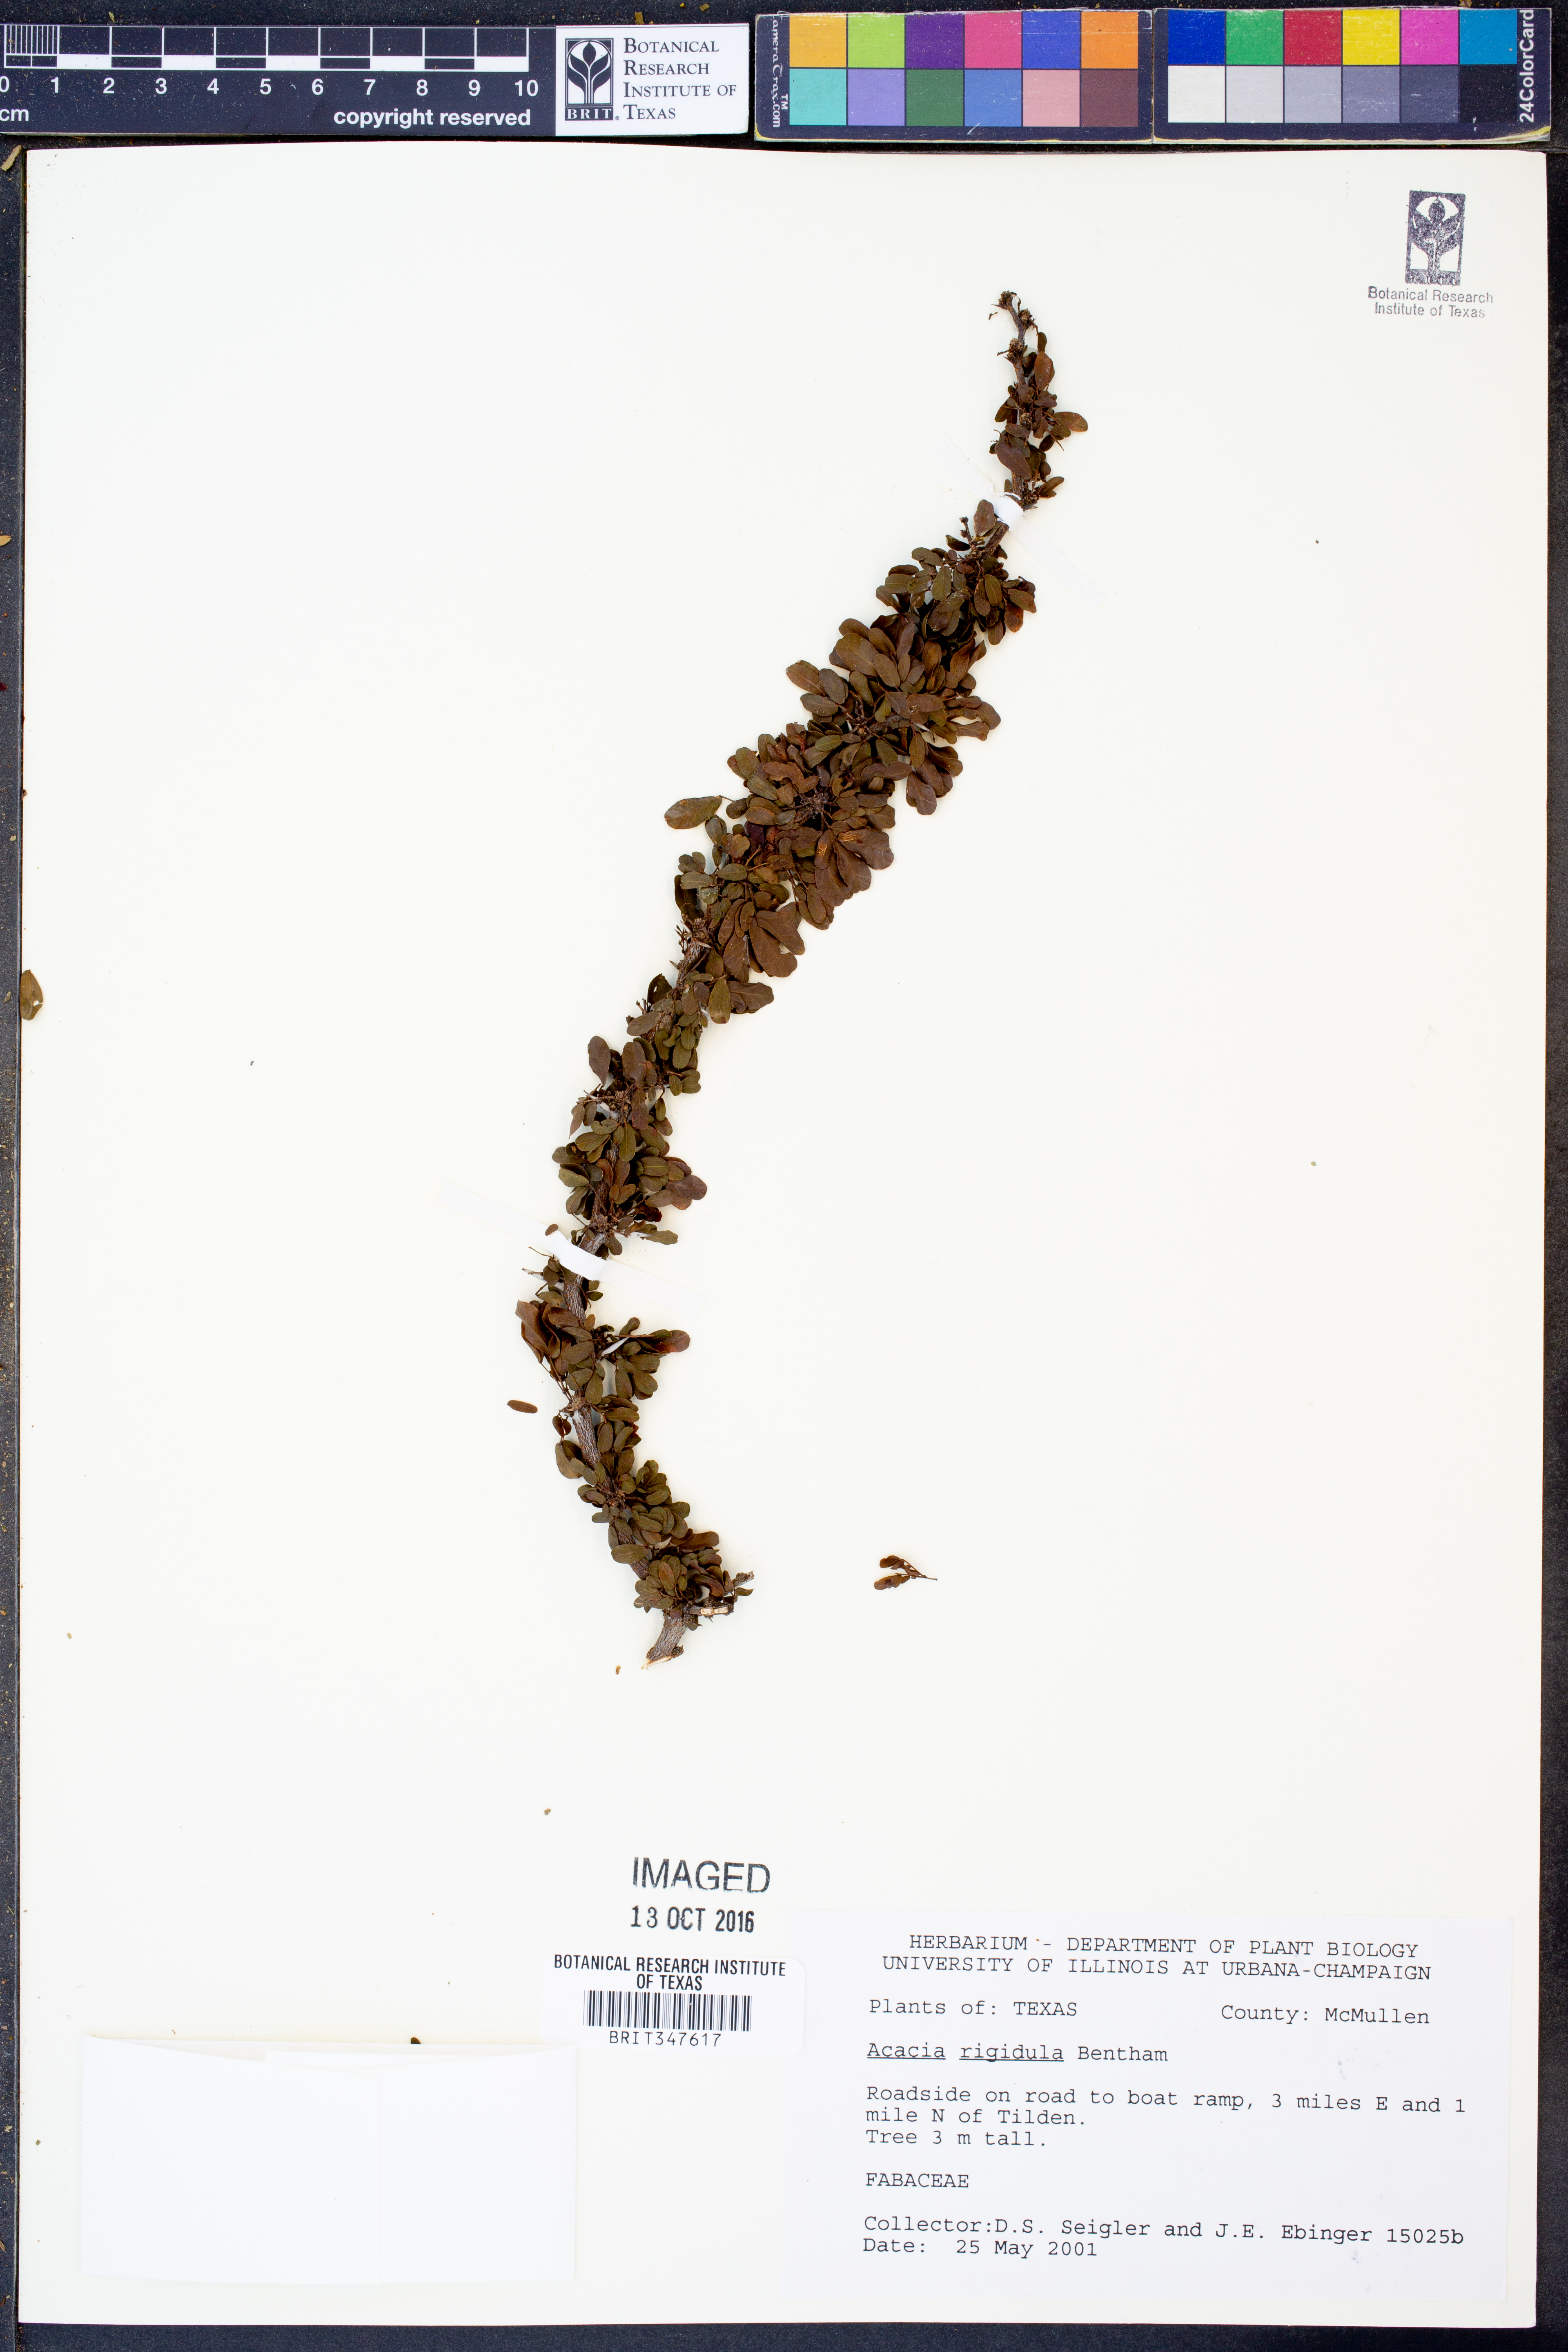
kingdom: Plantae
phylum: Tracheophyta
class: Magnoliopsida
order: Fabales
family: Fabaceae
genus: Vachellia
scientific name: Vachellia rigidula
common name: Blackbrush
